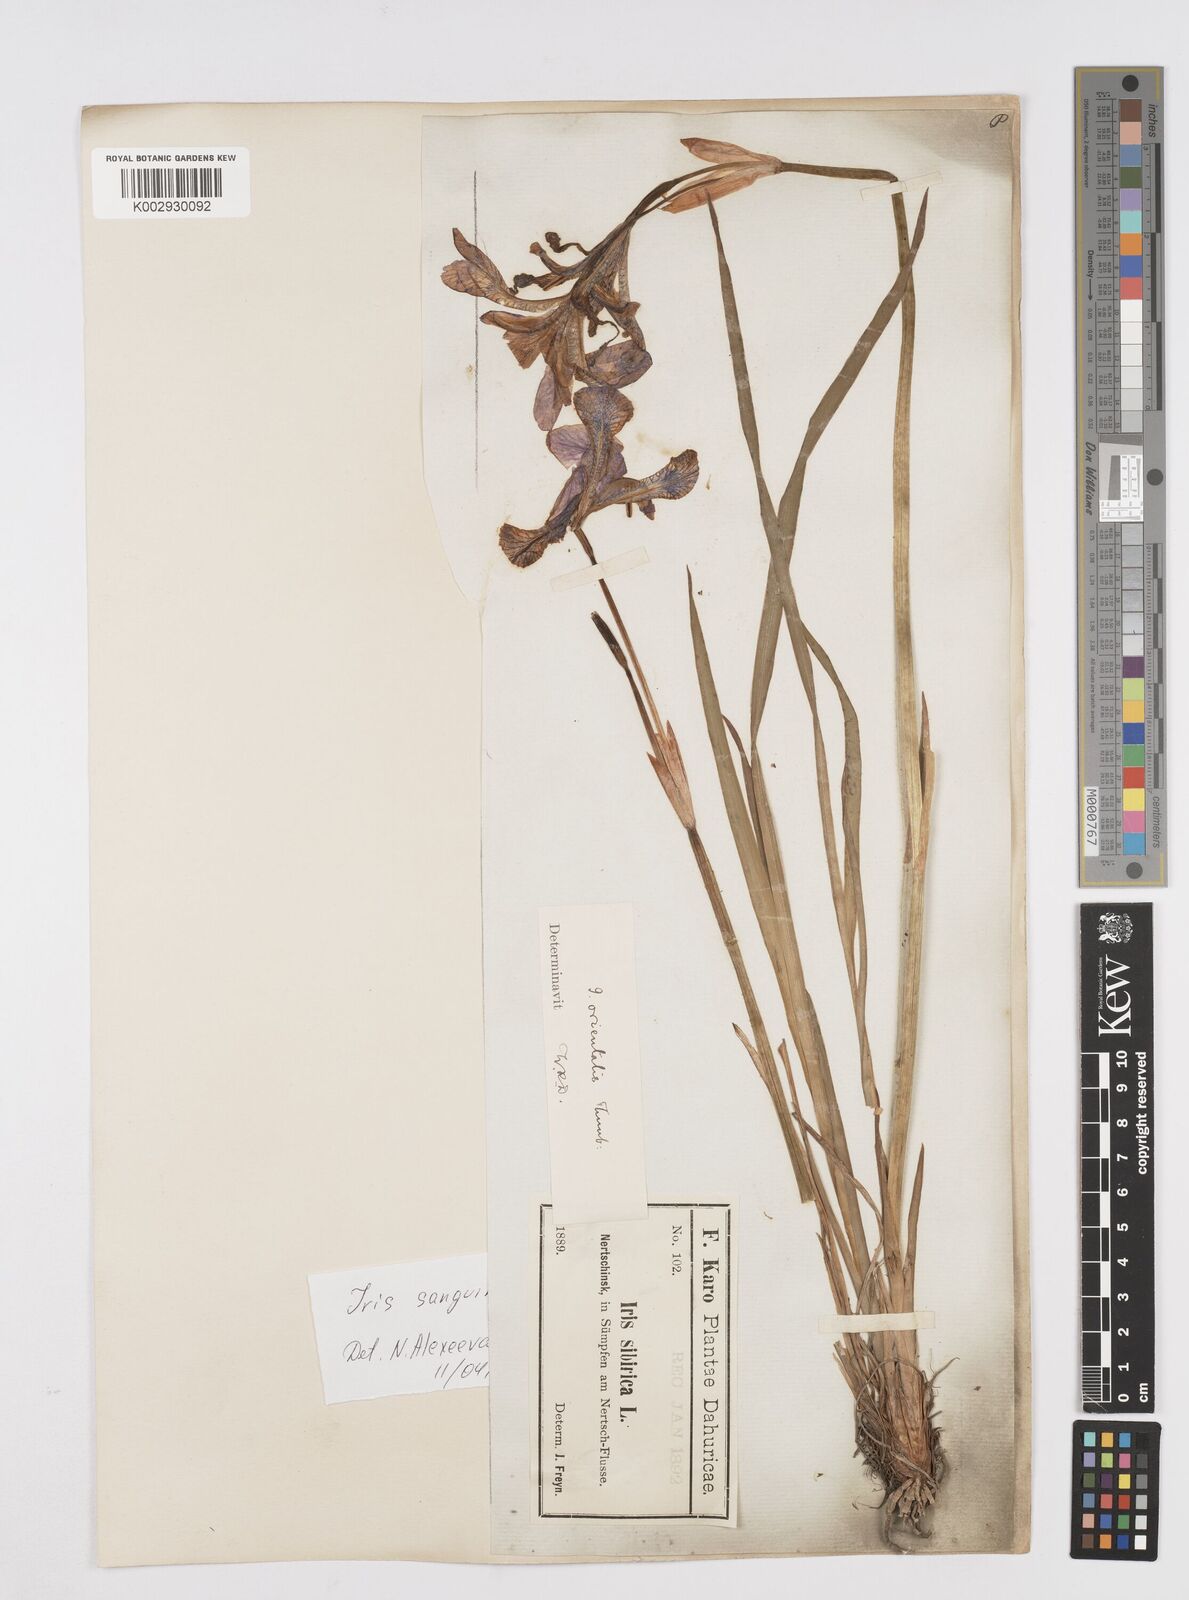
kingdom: Plantae
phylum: Tracheophyta
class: Liliopsida
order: Asparagales
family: Iridaceae
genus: Iris
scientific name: Iris sanguinea
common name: Blood iris
